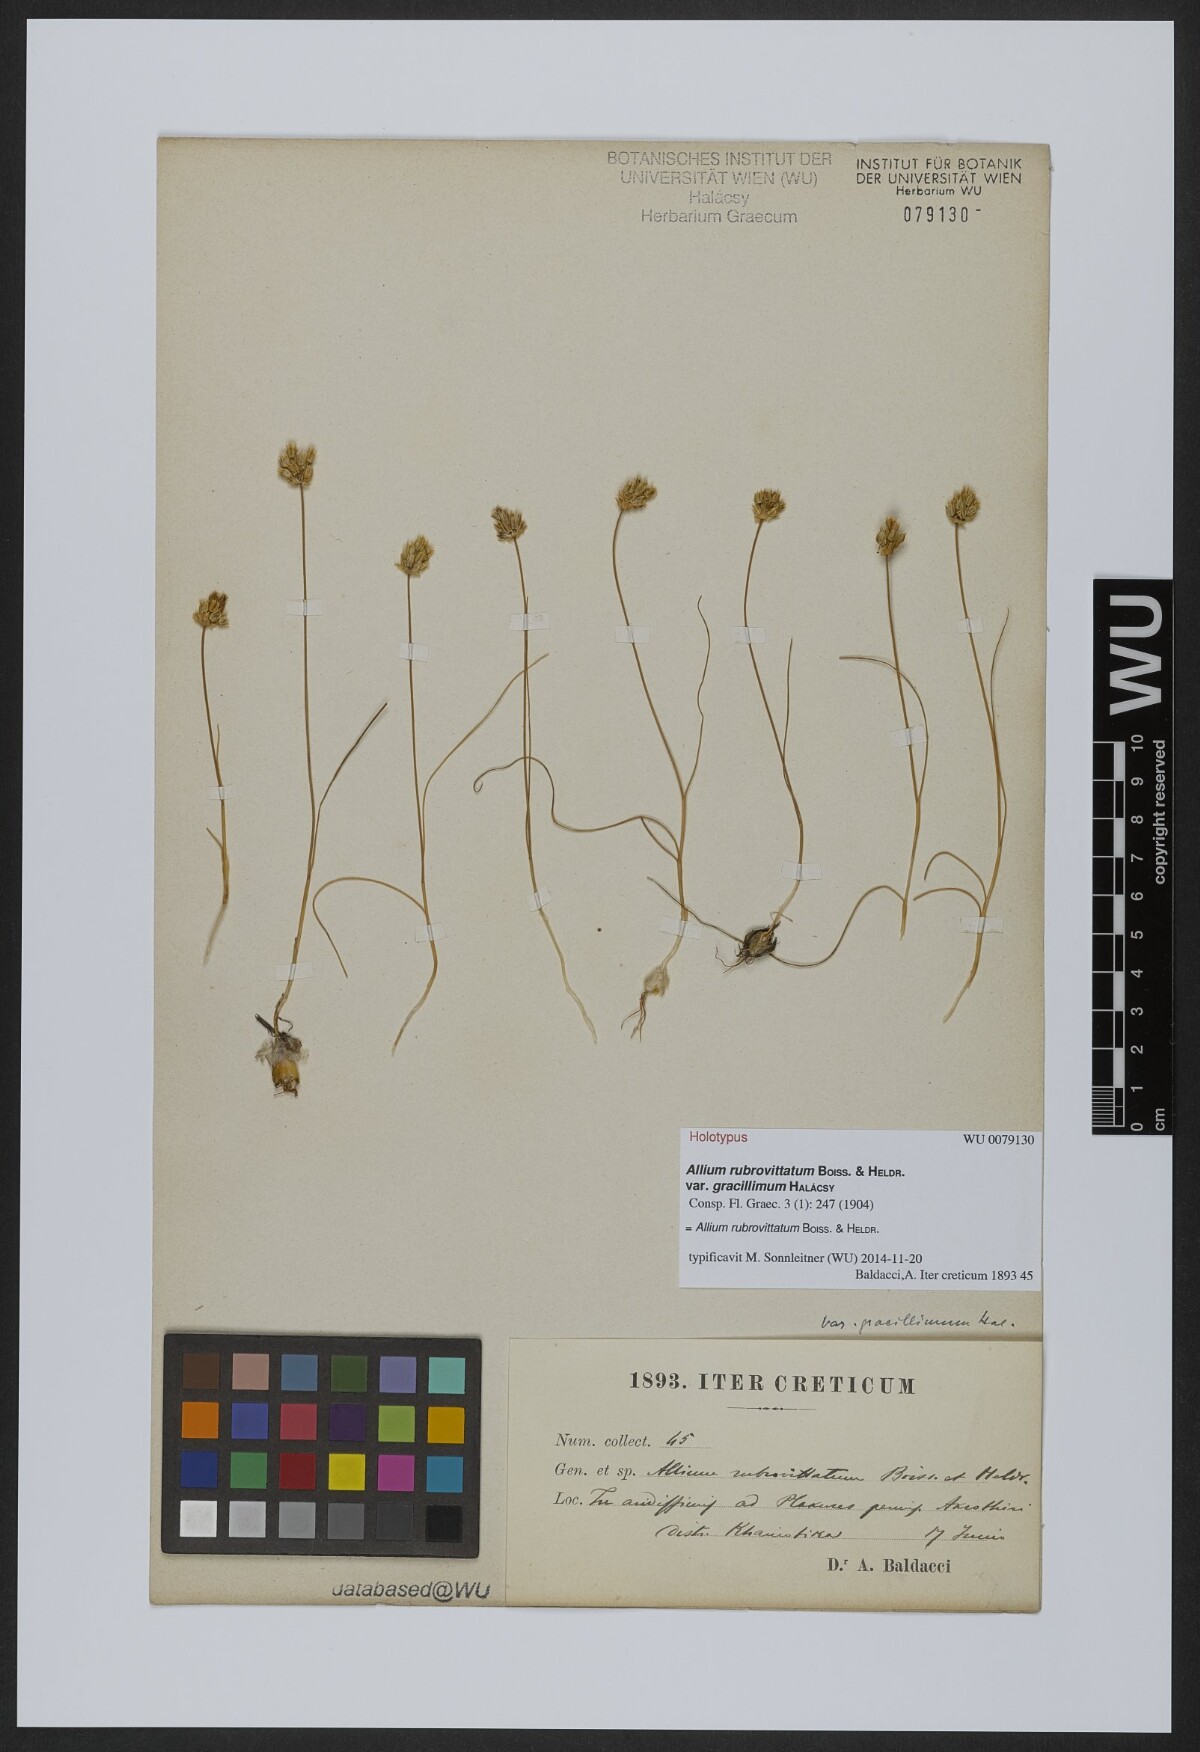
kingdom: Plantae
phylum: Tracheophyta
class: Liliopsida
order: Asparagales
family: Amaryllidaceae
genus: Allium
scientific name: Allium rubrovittatum
